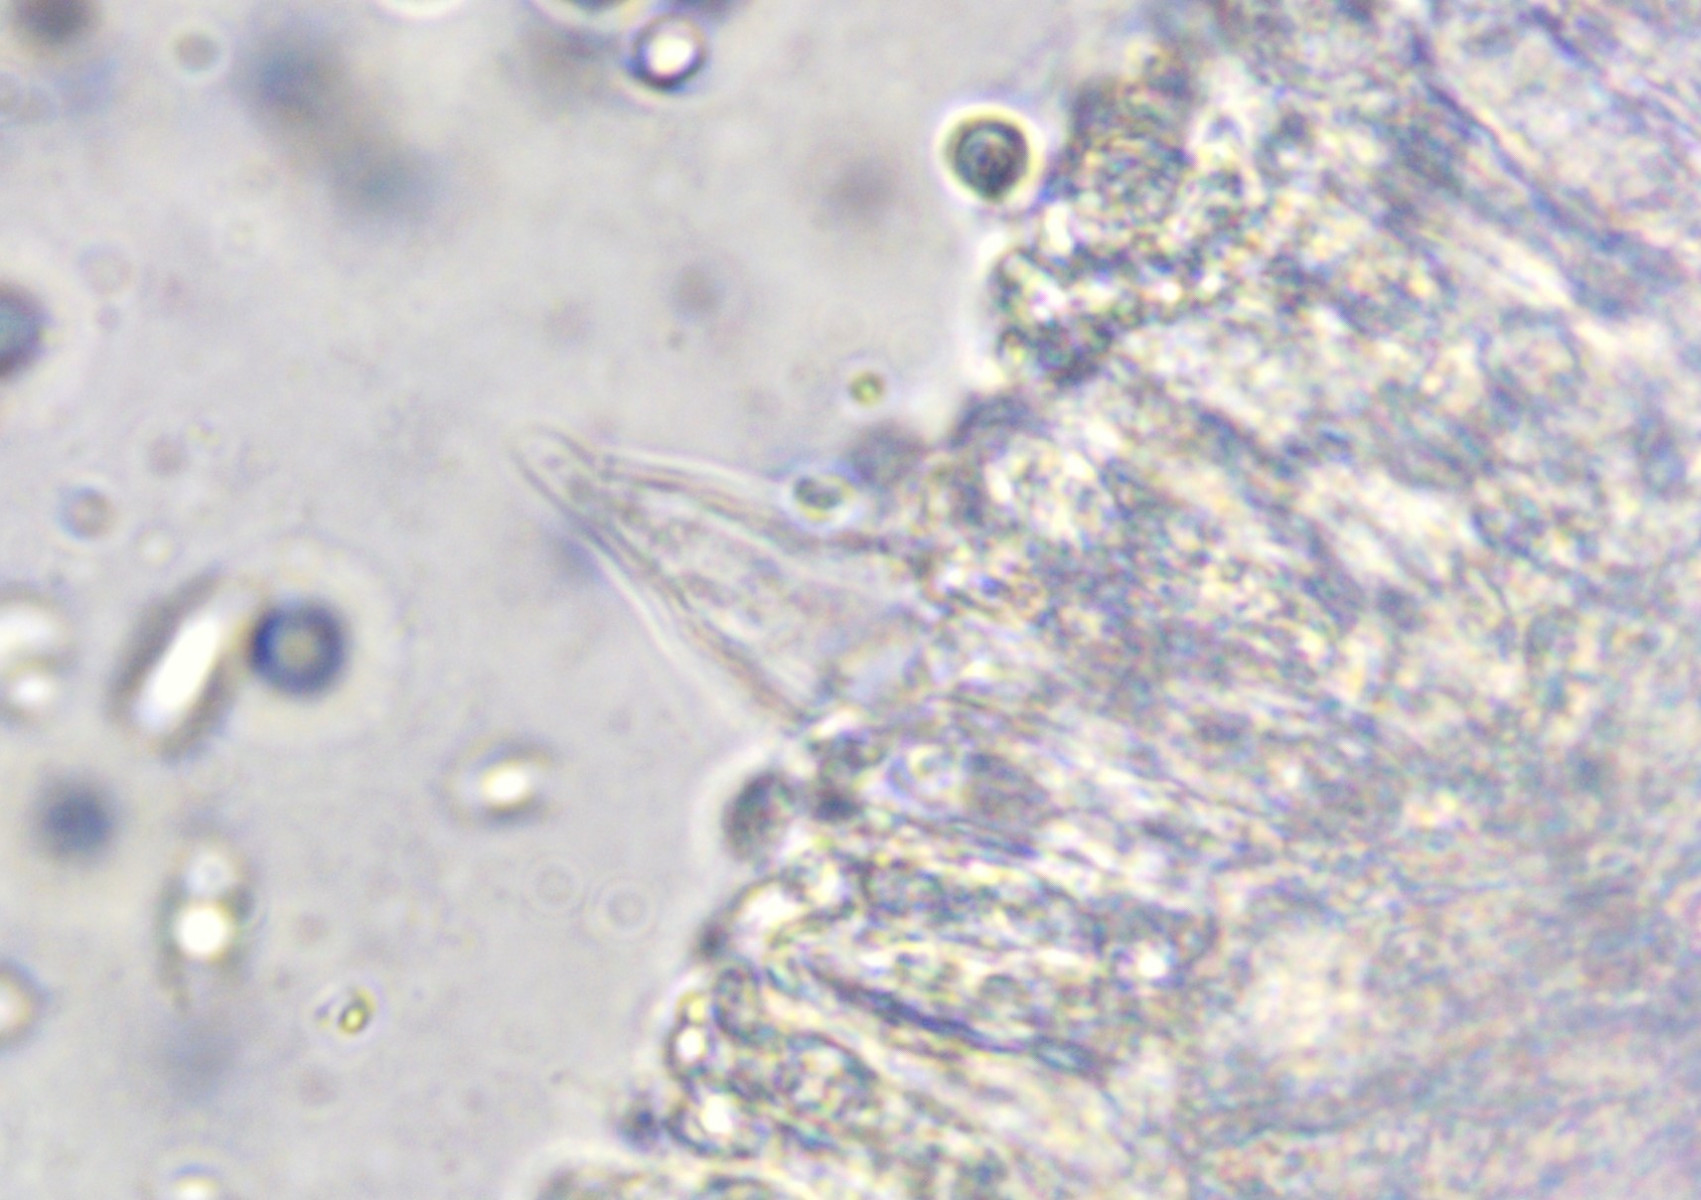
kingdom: Fungi
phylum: Basidiomycota
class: Agaricomycetes
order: Agaricales
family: Mycenaceae
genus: Atheniella
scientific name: Atheniella flavoalba
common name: gulhvid huesvamp
